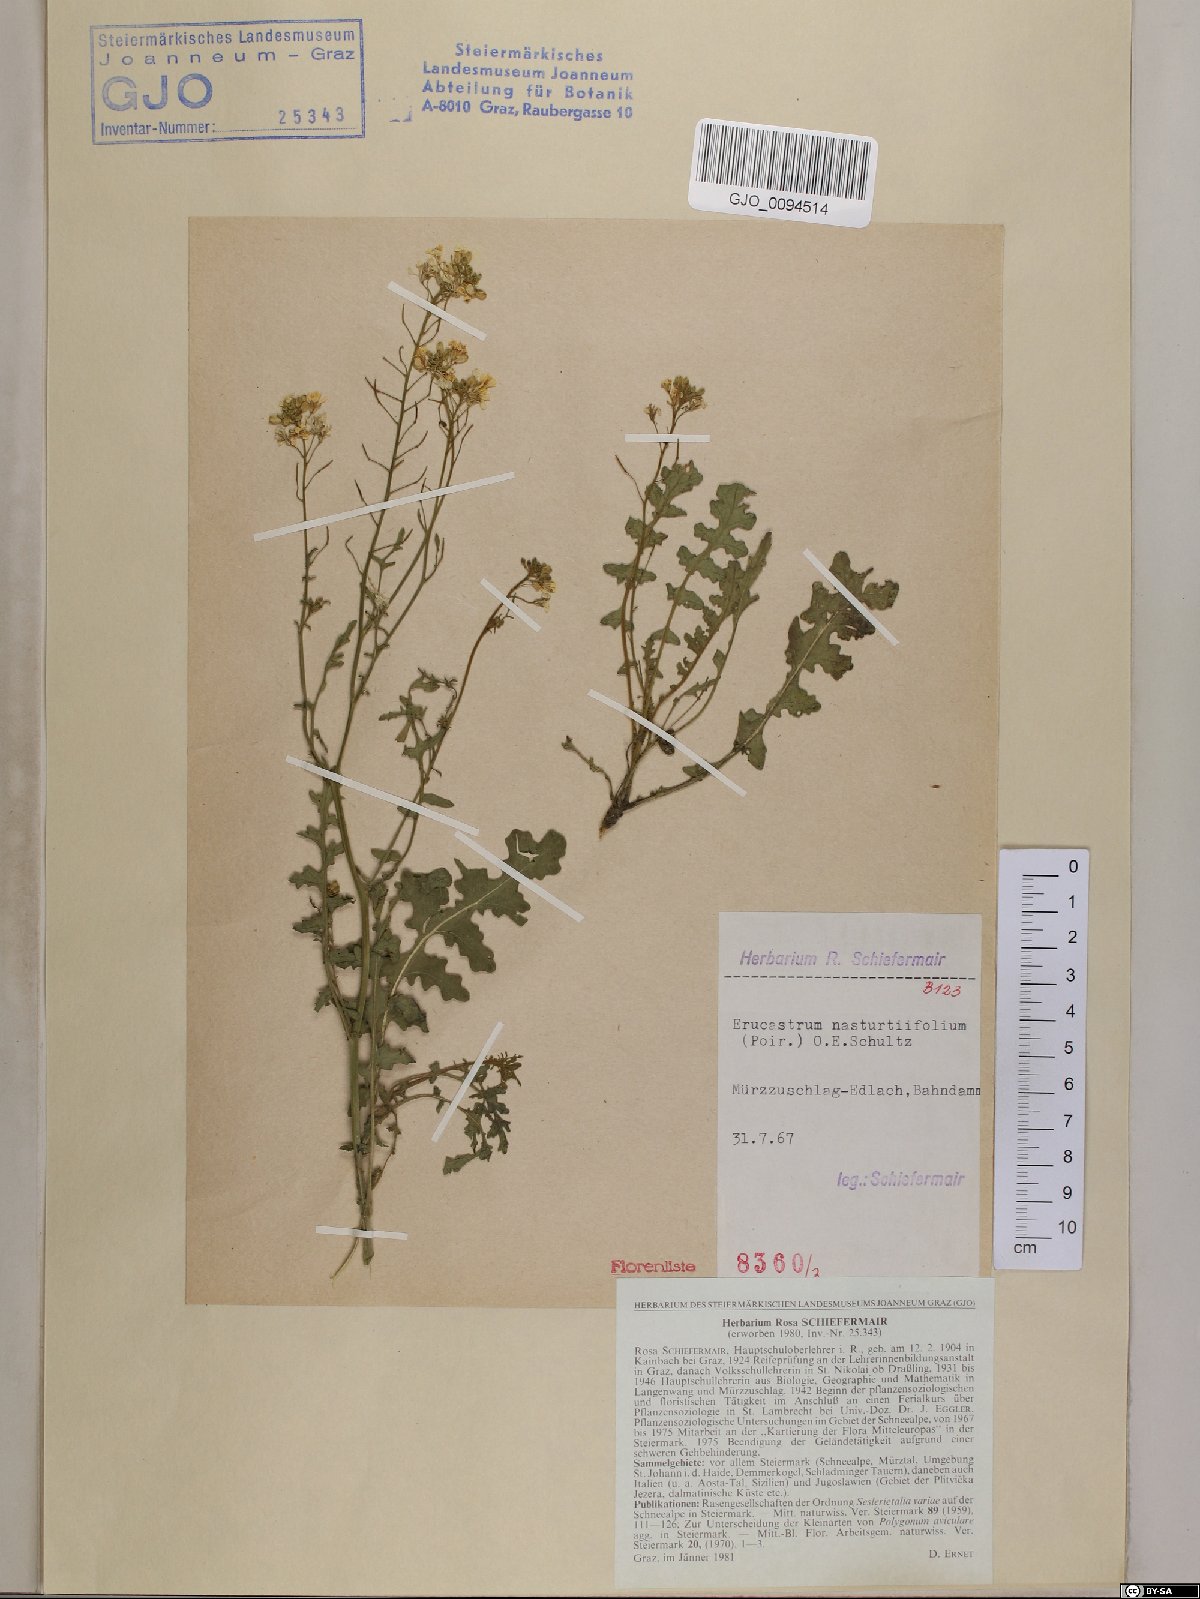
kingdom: Plantae
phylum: Tracheophyta
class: Magnoliopsida
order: Brassicales
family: Brassicaceae
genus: Erucastrum
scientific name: Erucastrum nasturtiifolium
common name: Watercress-leaf rocket
